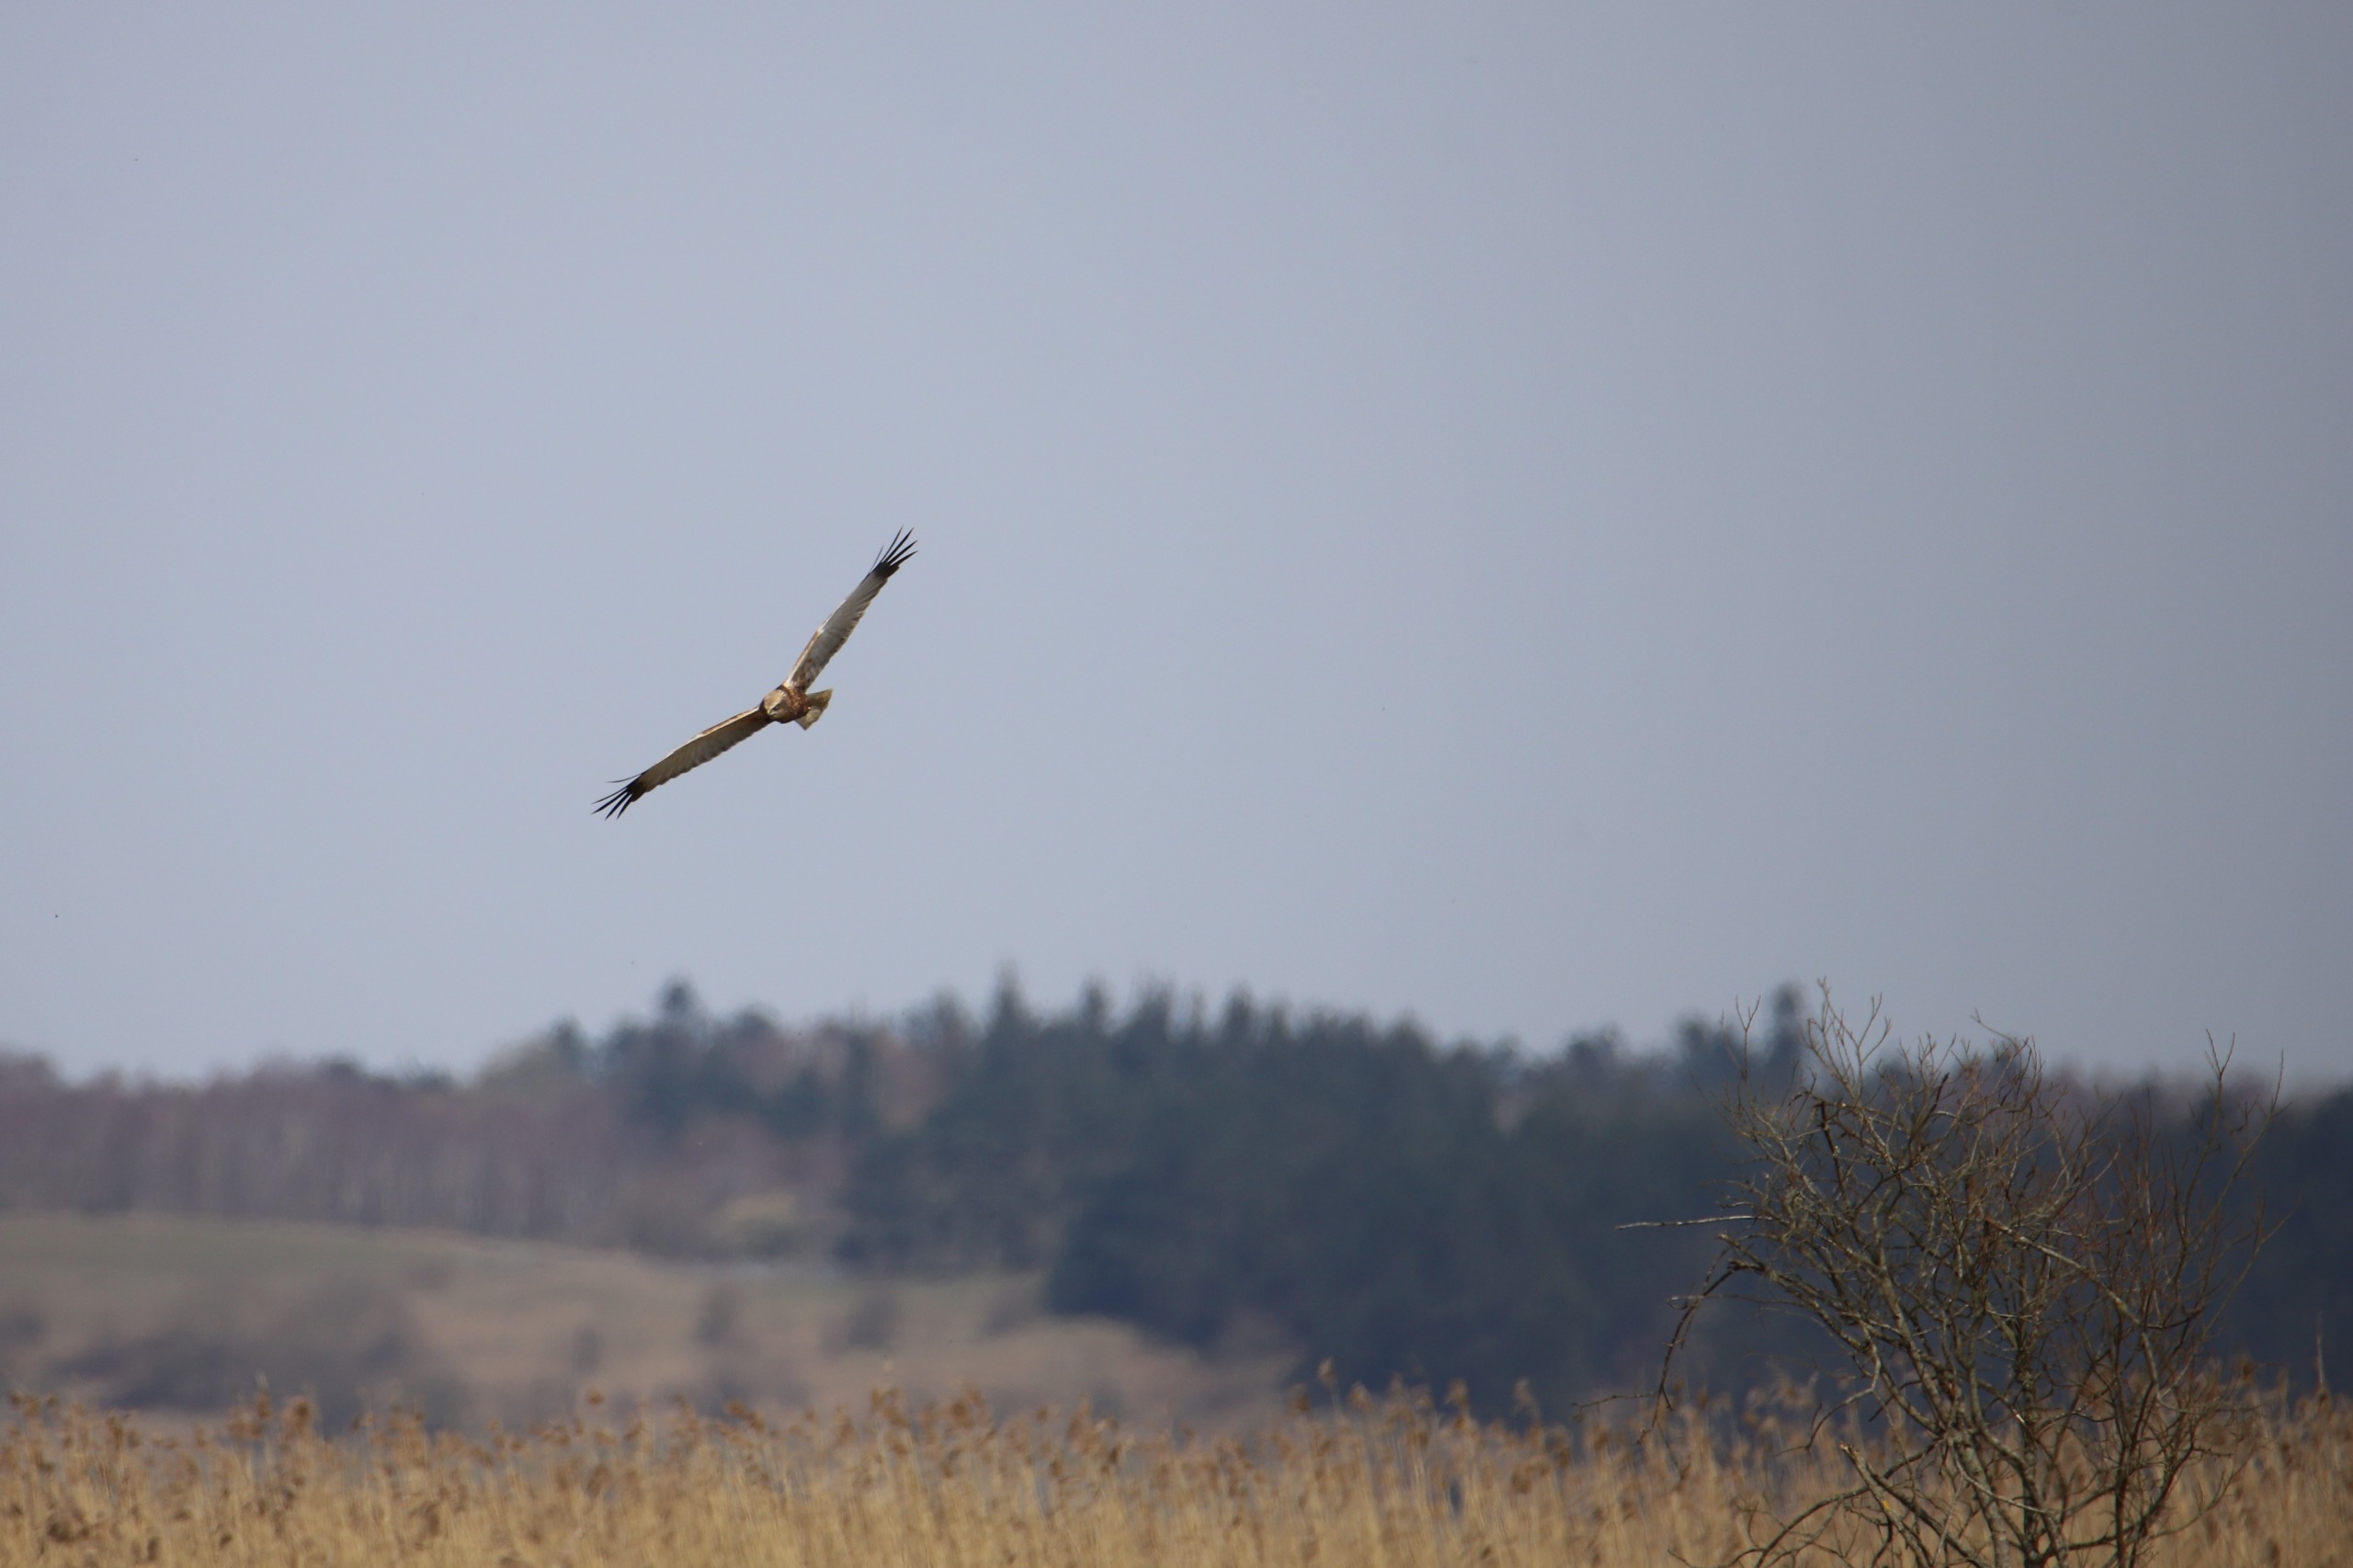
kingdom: Animalia
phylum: Chordata
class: Aves
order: Accipitriformes
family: Accipitridae
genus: Circus
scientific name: Circus aeruginosus
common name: Rørhøg
